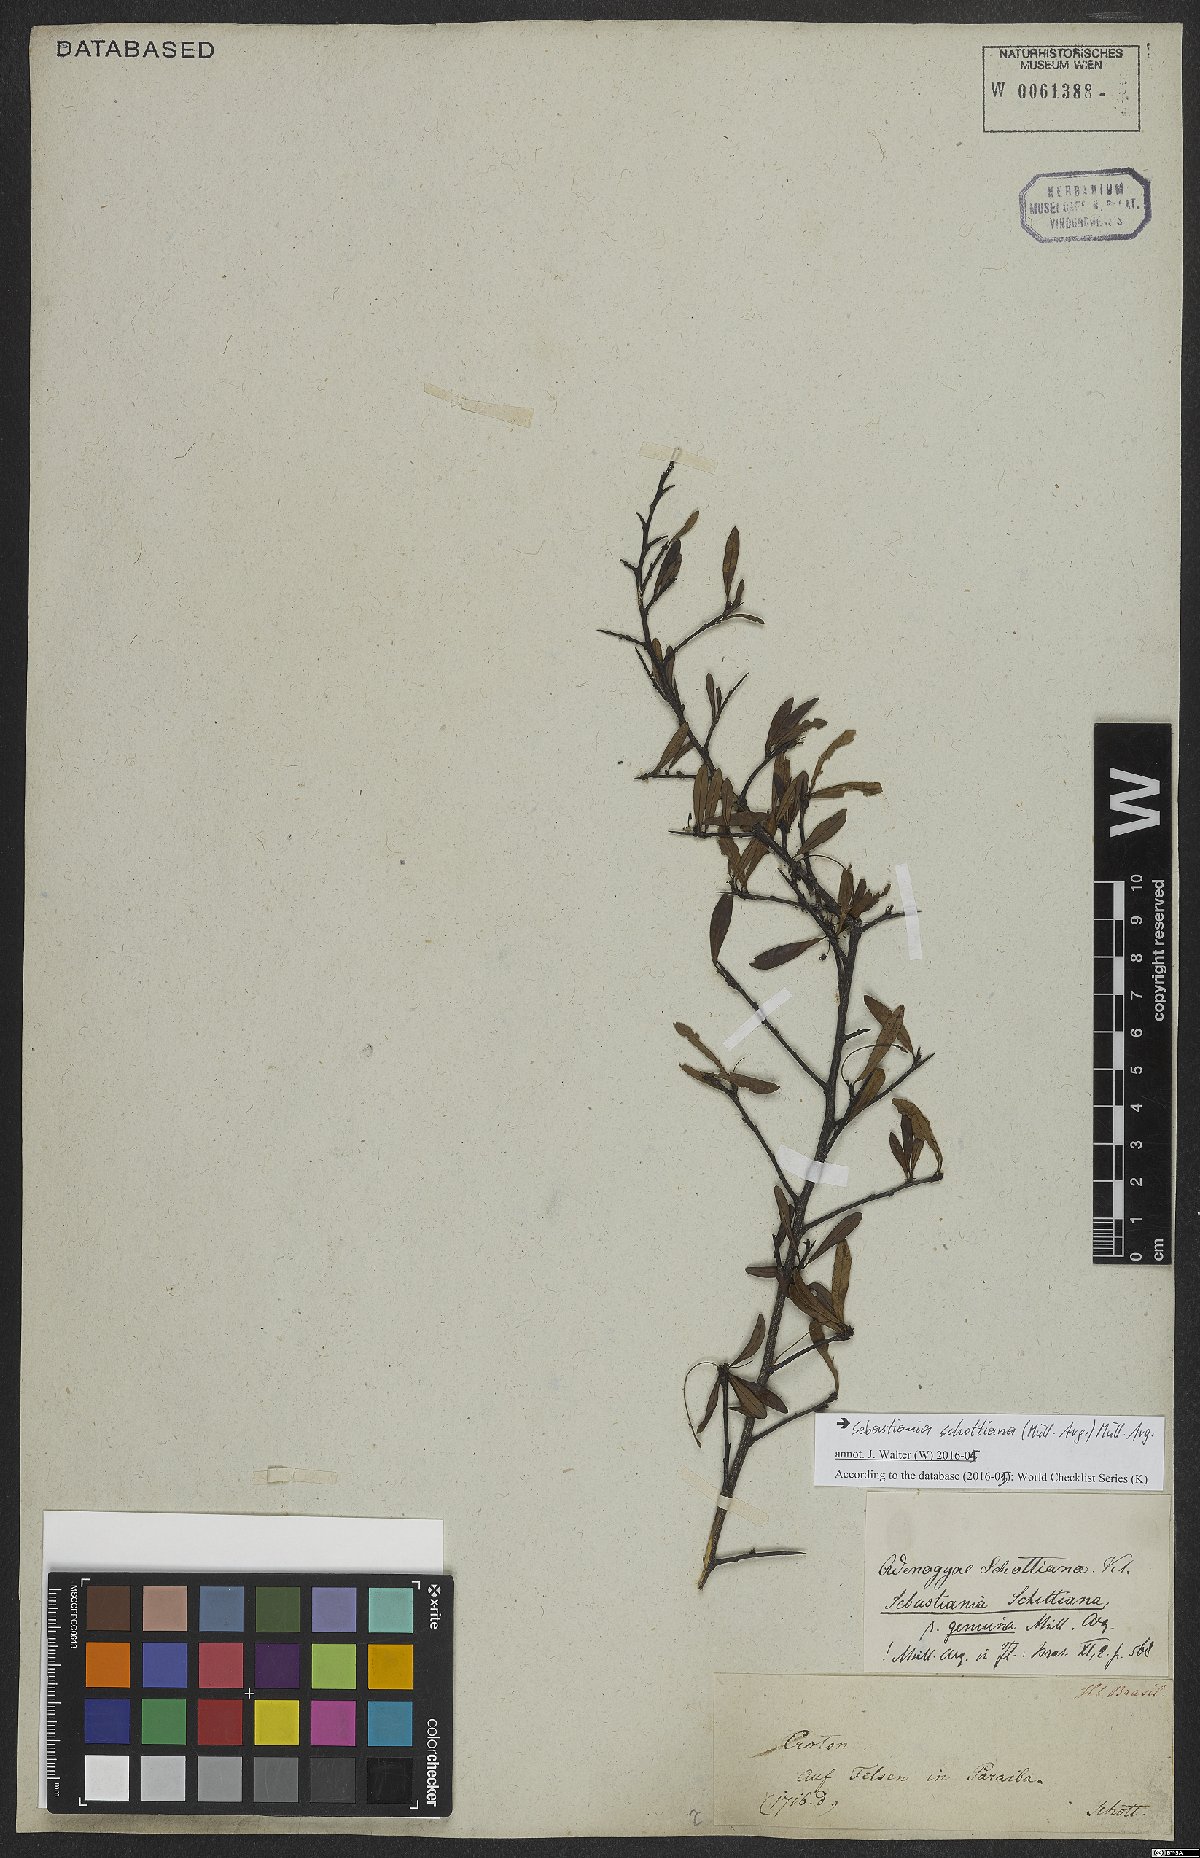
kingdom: Plantae
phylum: Tracheophyta
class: Magnoliopsida
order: Malpighiales
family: Euphorbiaceae
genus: Sebastiania
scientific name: Sebastiania schottiana
